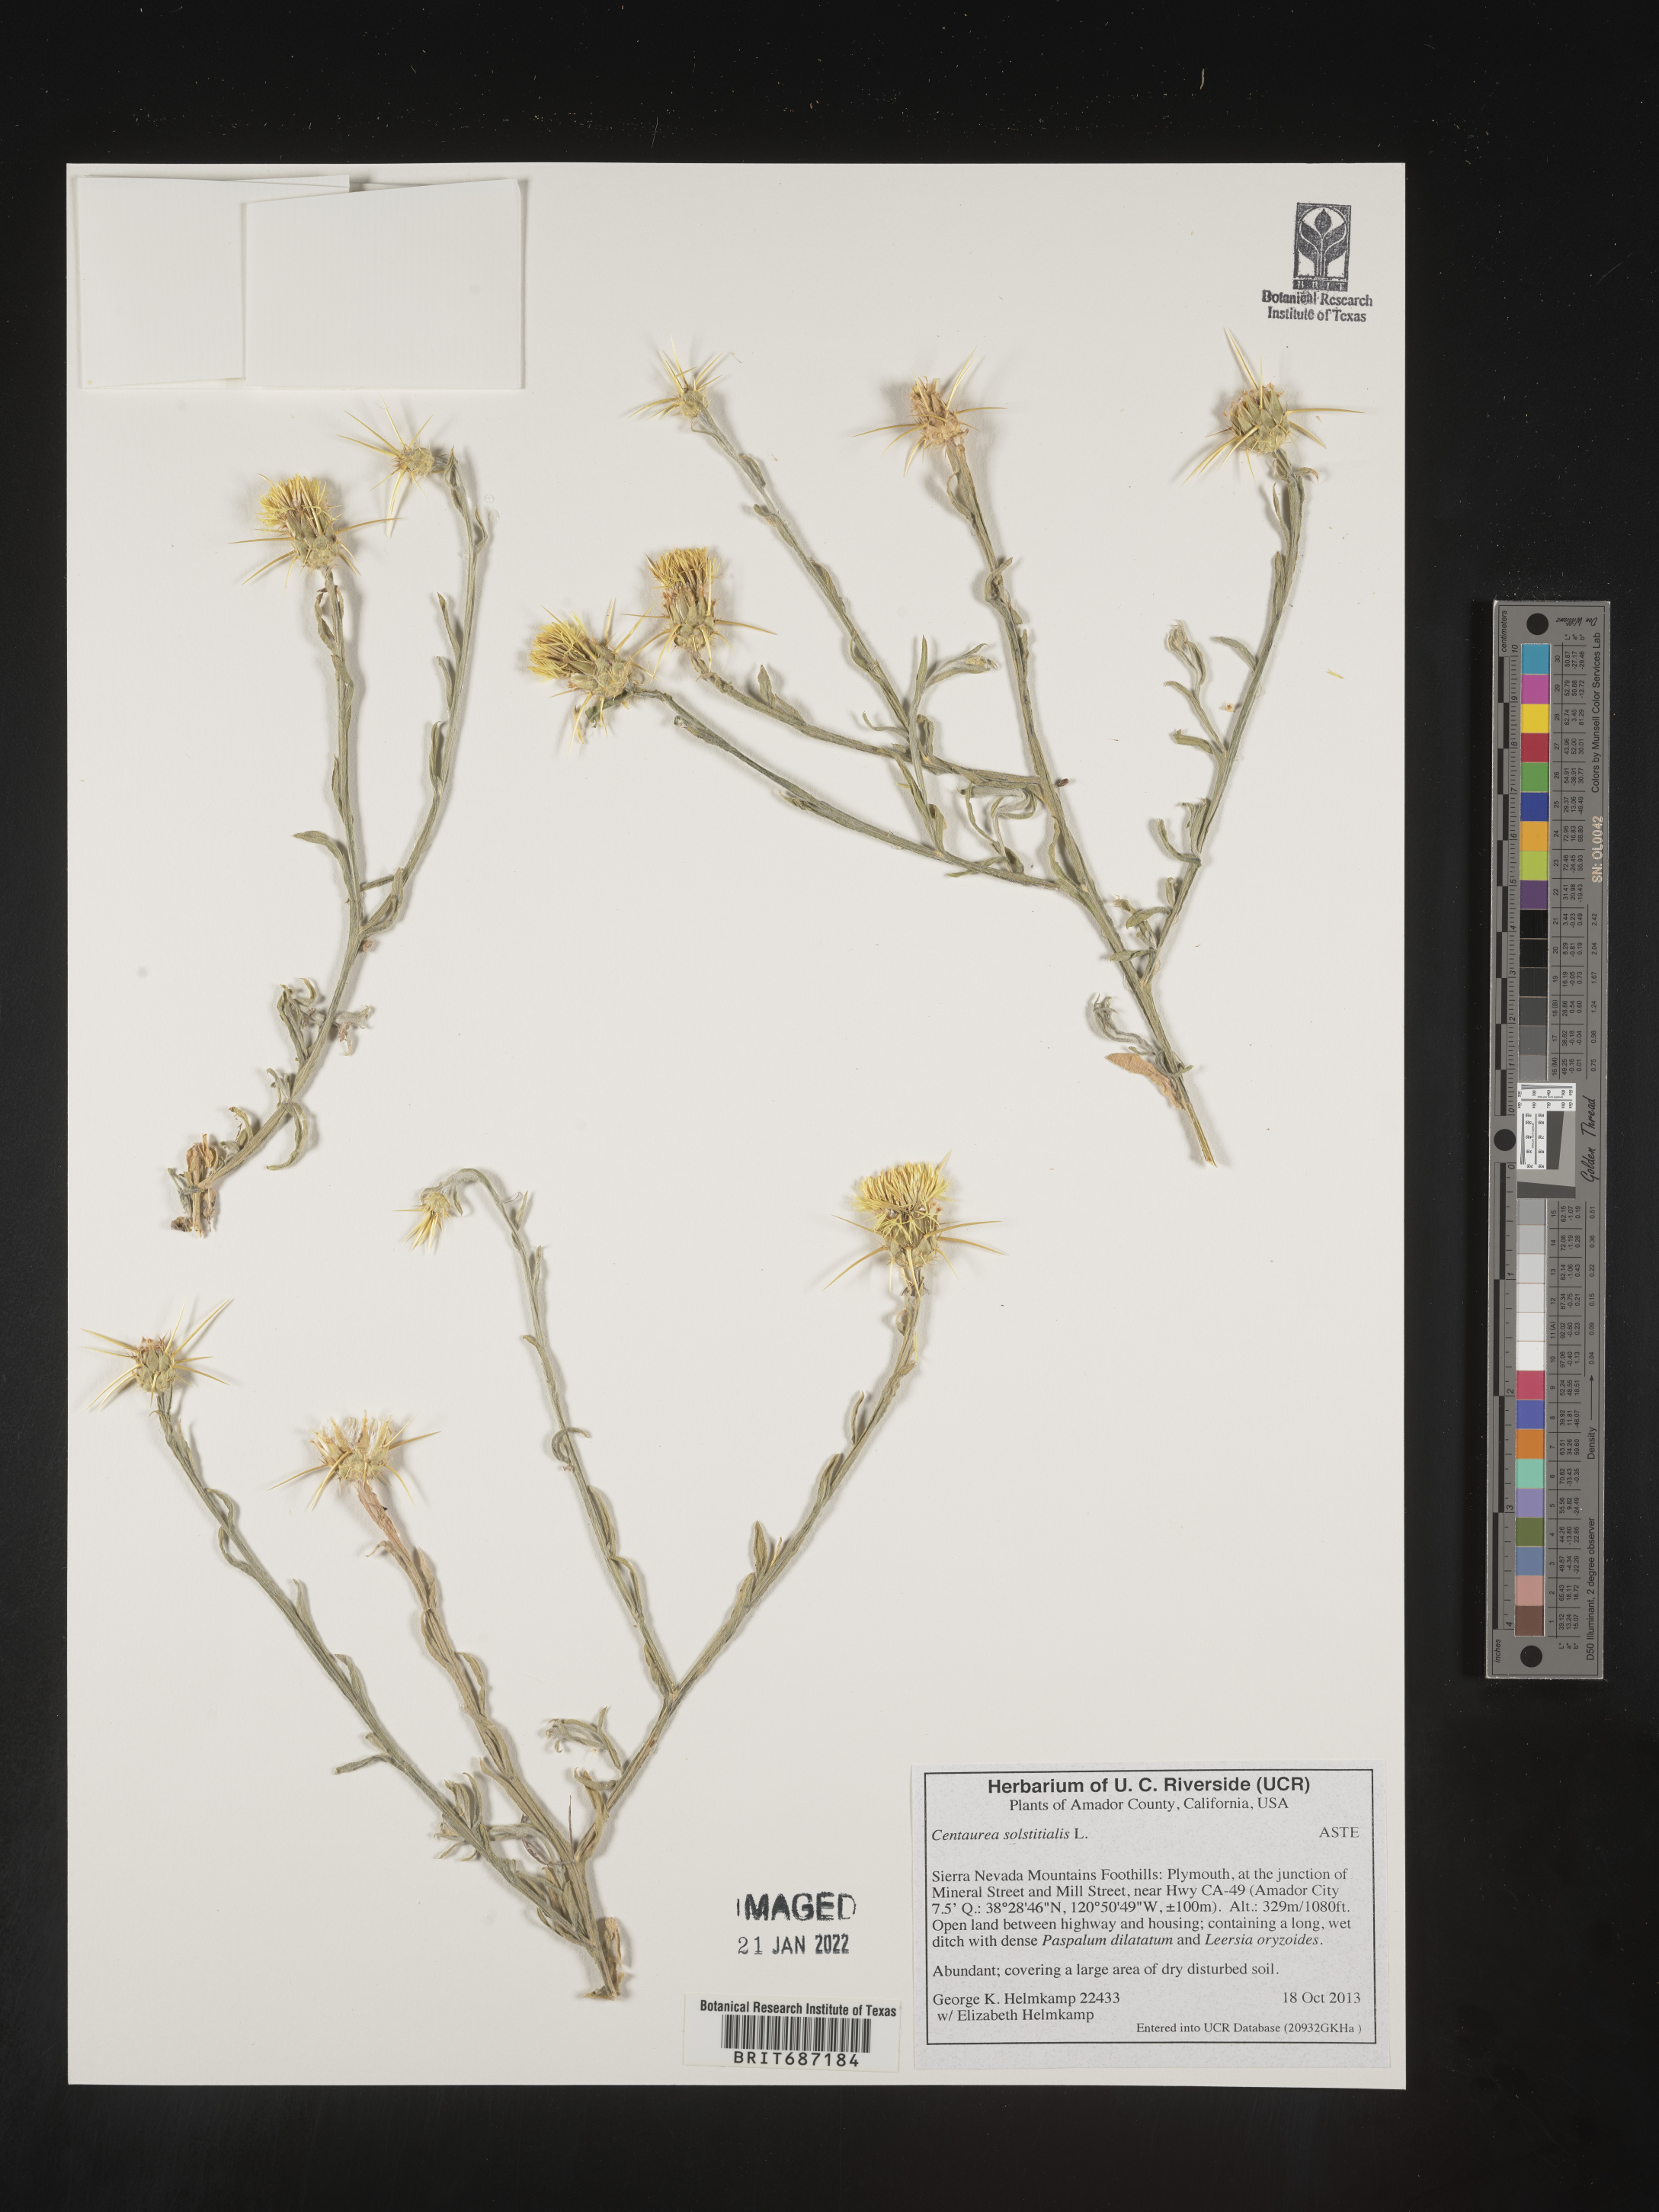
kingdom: Plantae
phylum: Tracheophyta
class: Magnoliopsida
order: Asterales
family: Asteraceae
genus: Centaurea
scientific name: Centaurea solstitialis
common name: Yellow star-thistle
